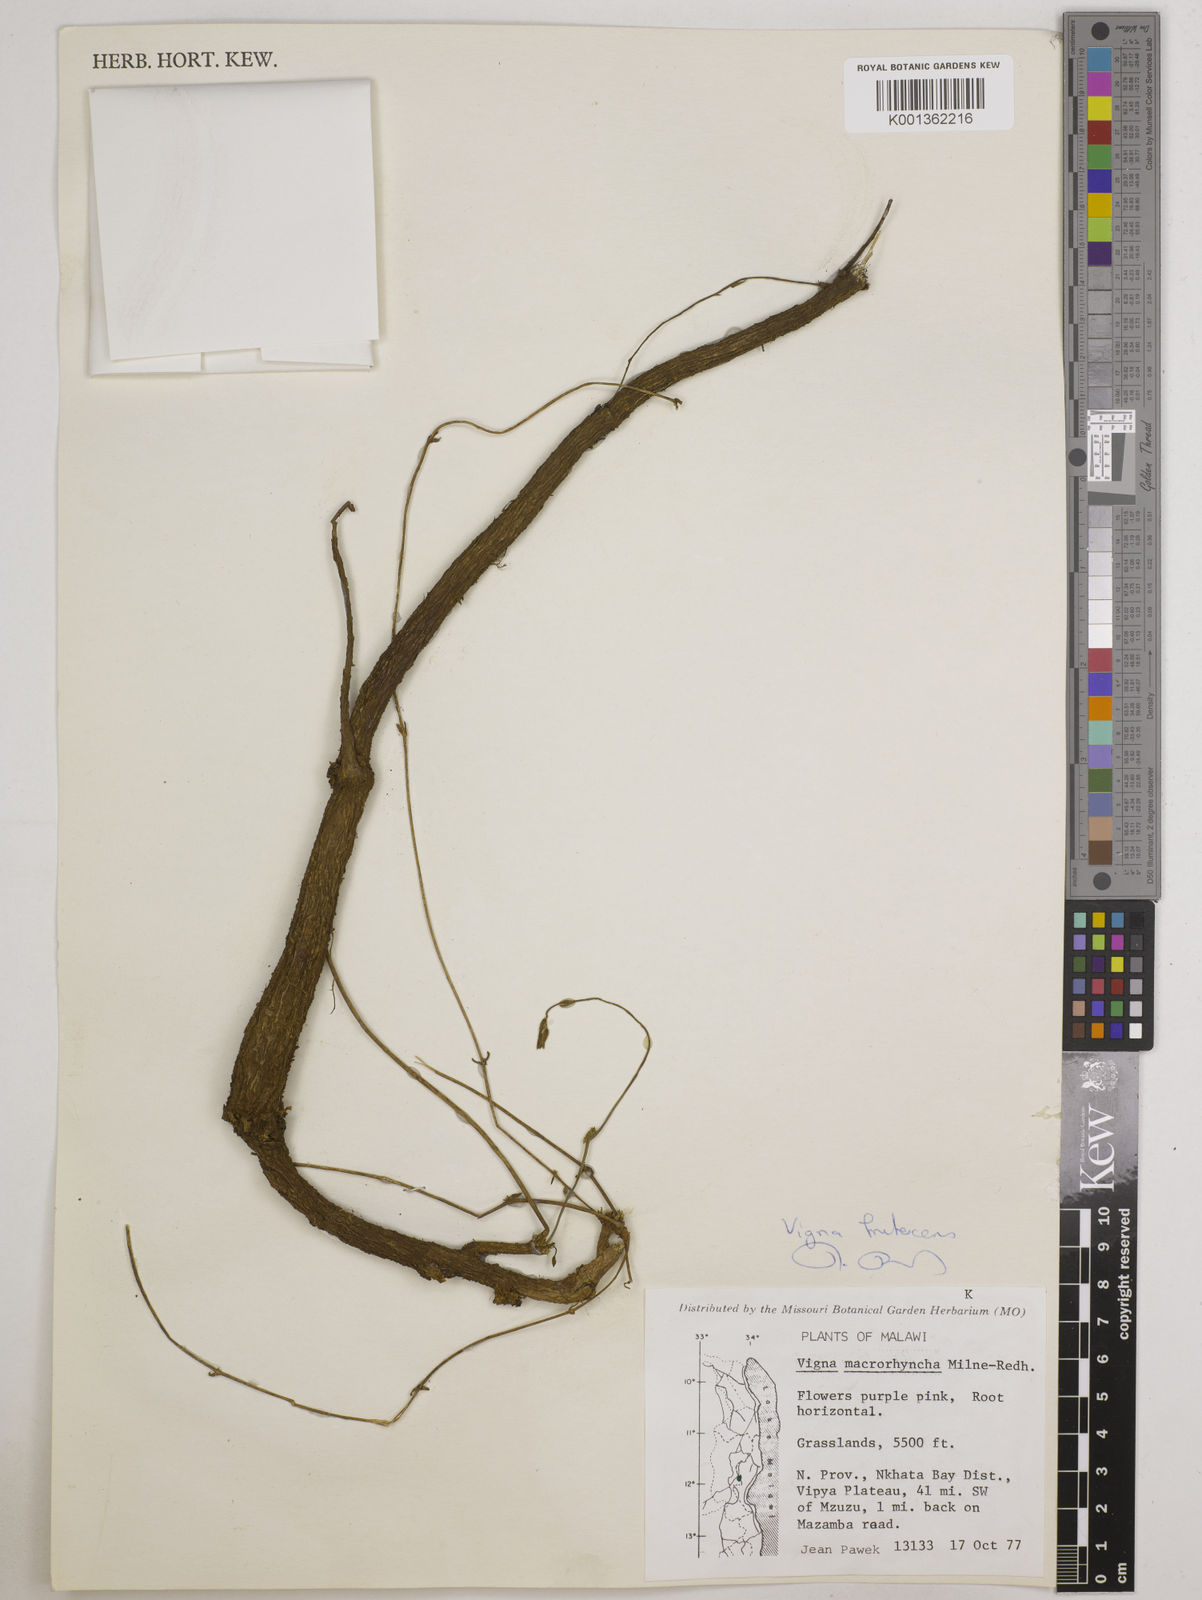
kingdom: Plantae
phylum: Tracheophyta
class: Magnoliopsida
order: Fabales
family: Fabaceae
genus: Wajira
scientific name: Wajira grahamiana
